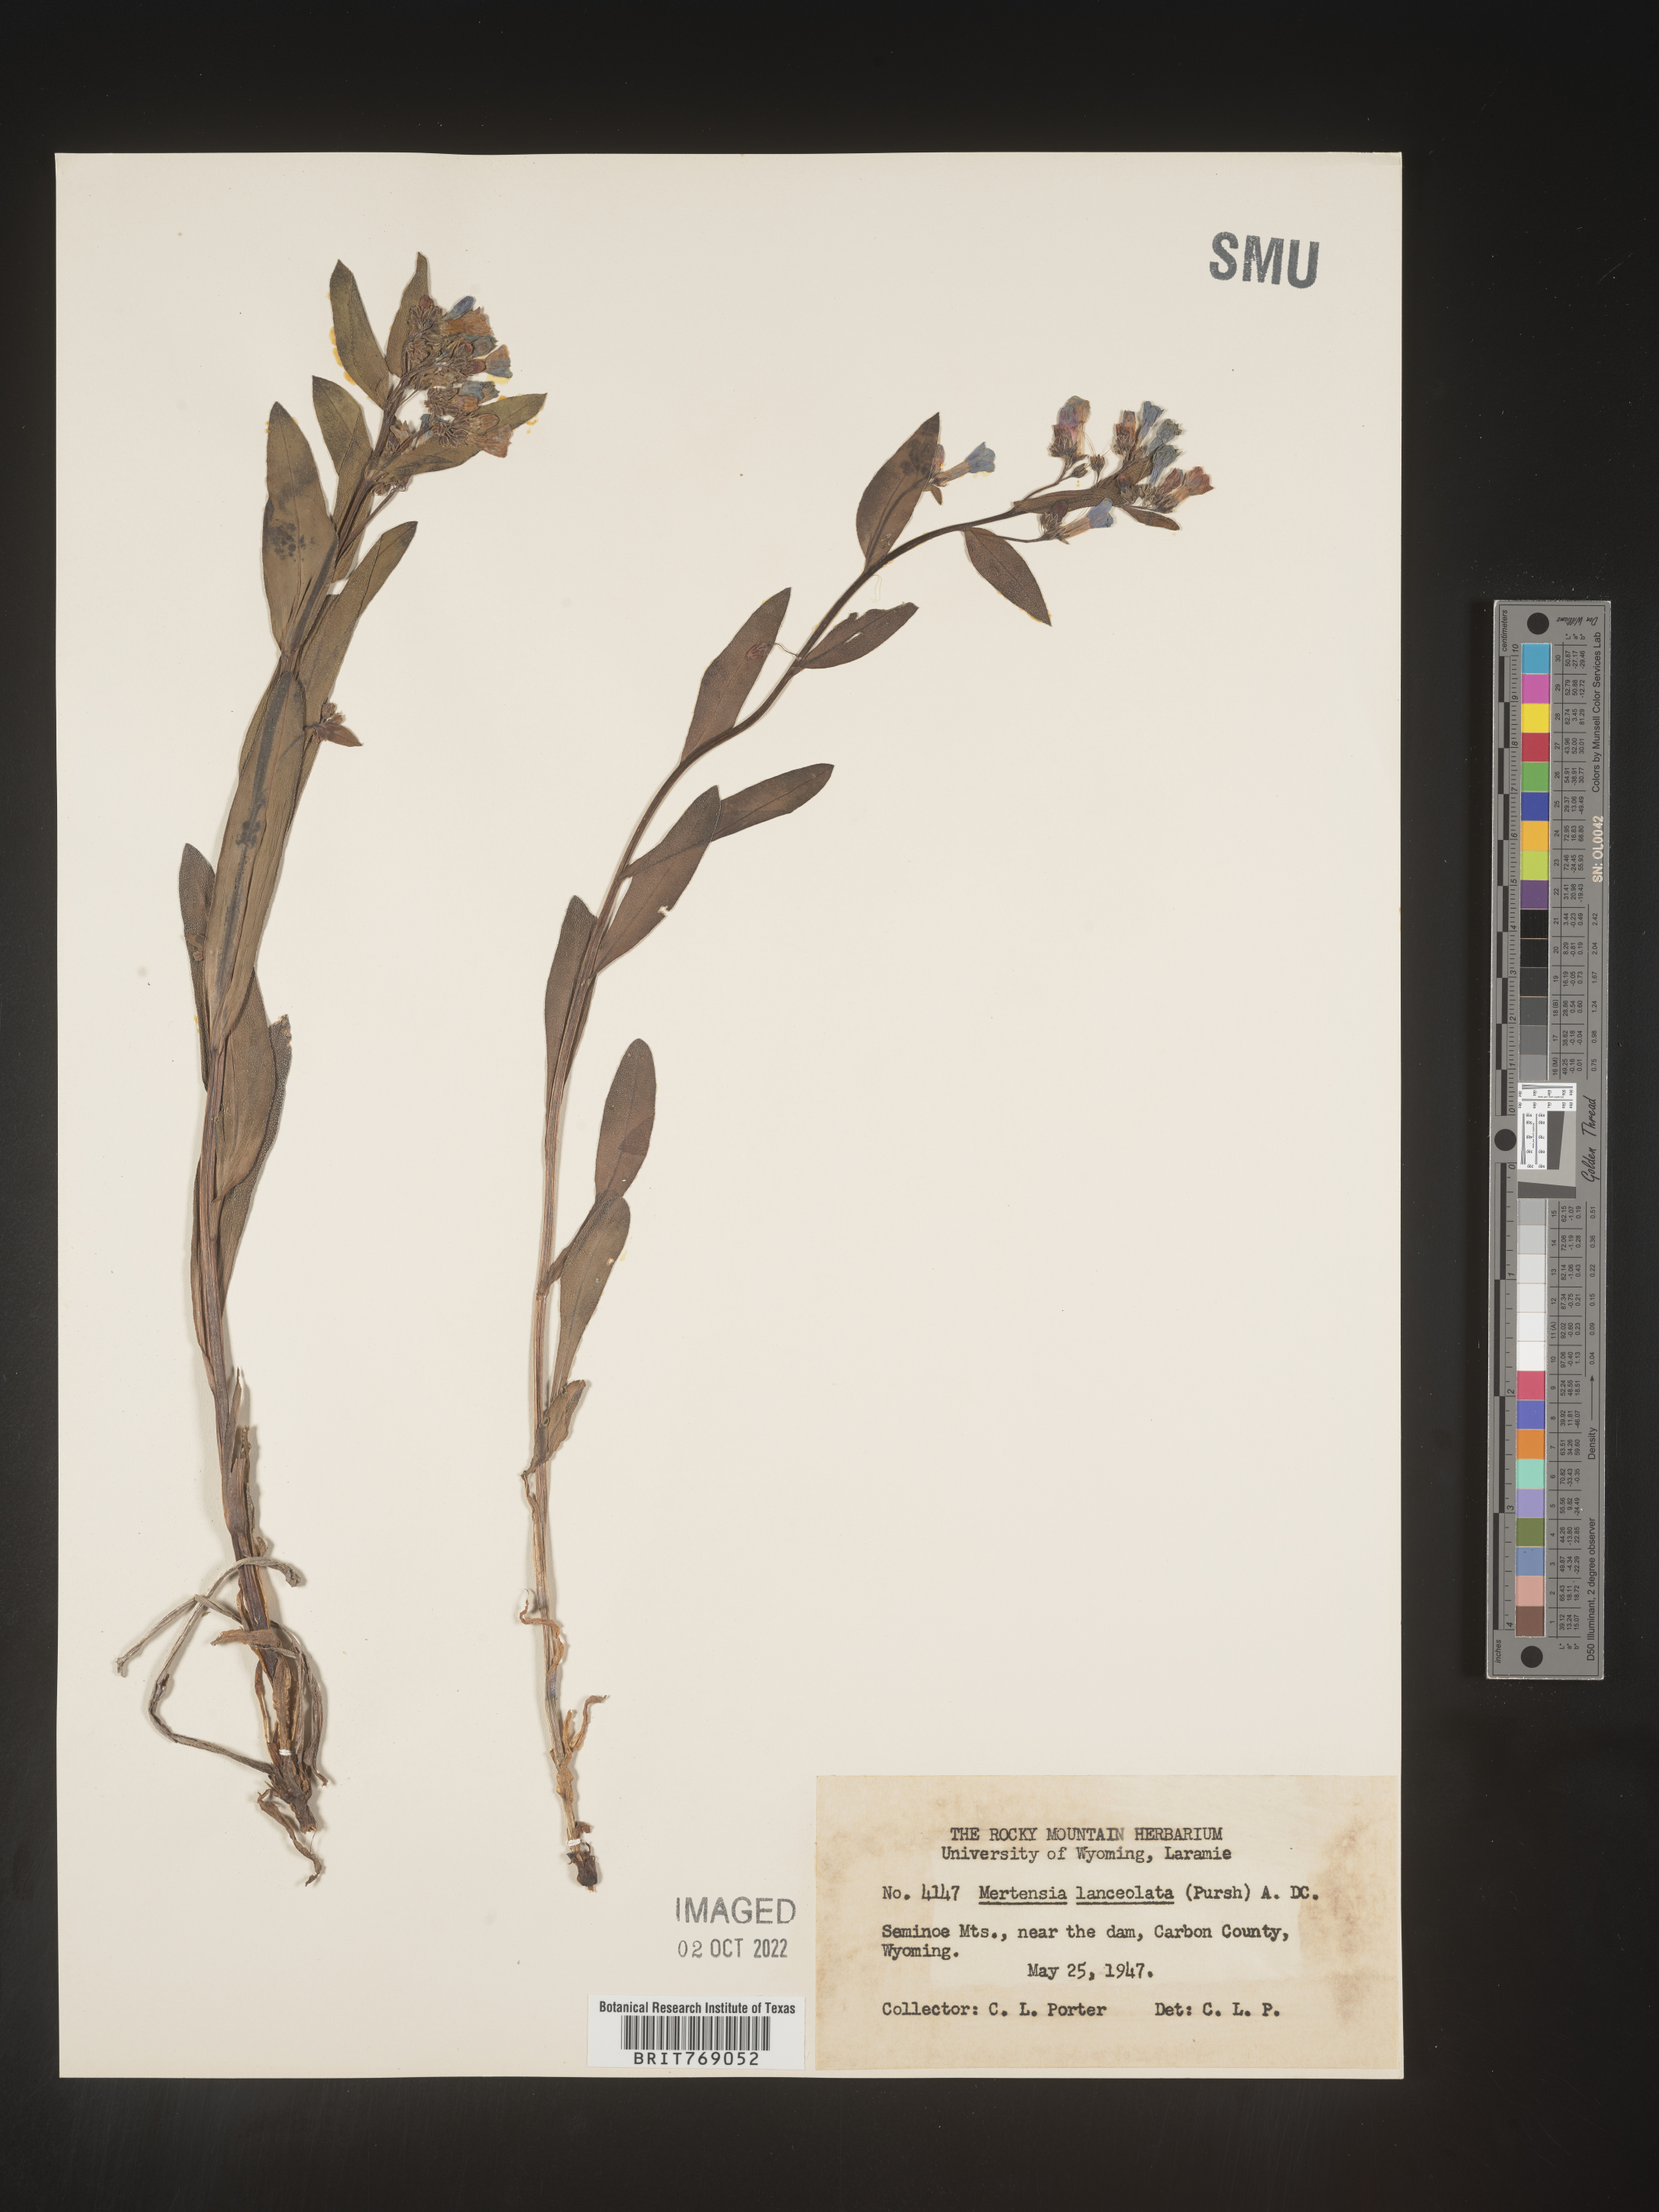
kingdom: Plantae
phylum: Tracheophyta
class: Magnoliopsida
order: Boraginales
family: Boraginaceae
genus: Mertensia
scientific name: Mertensia
